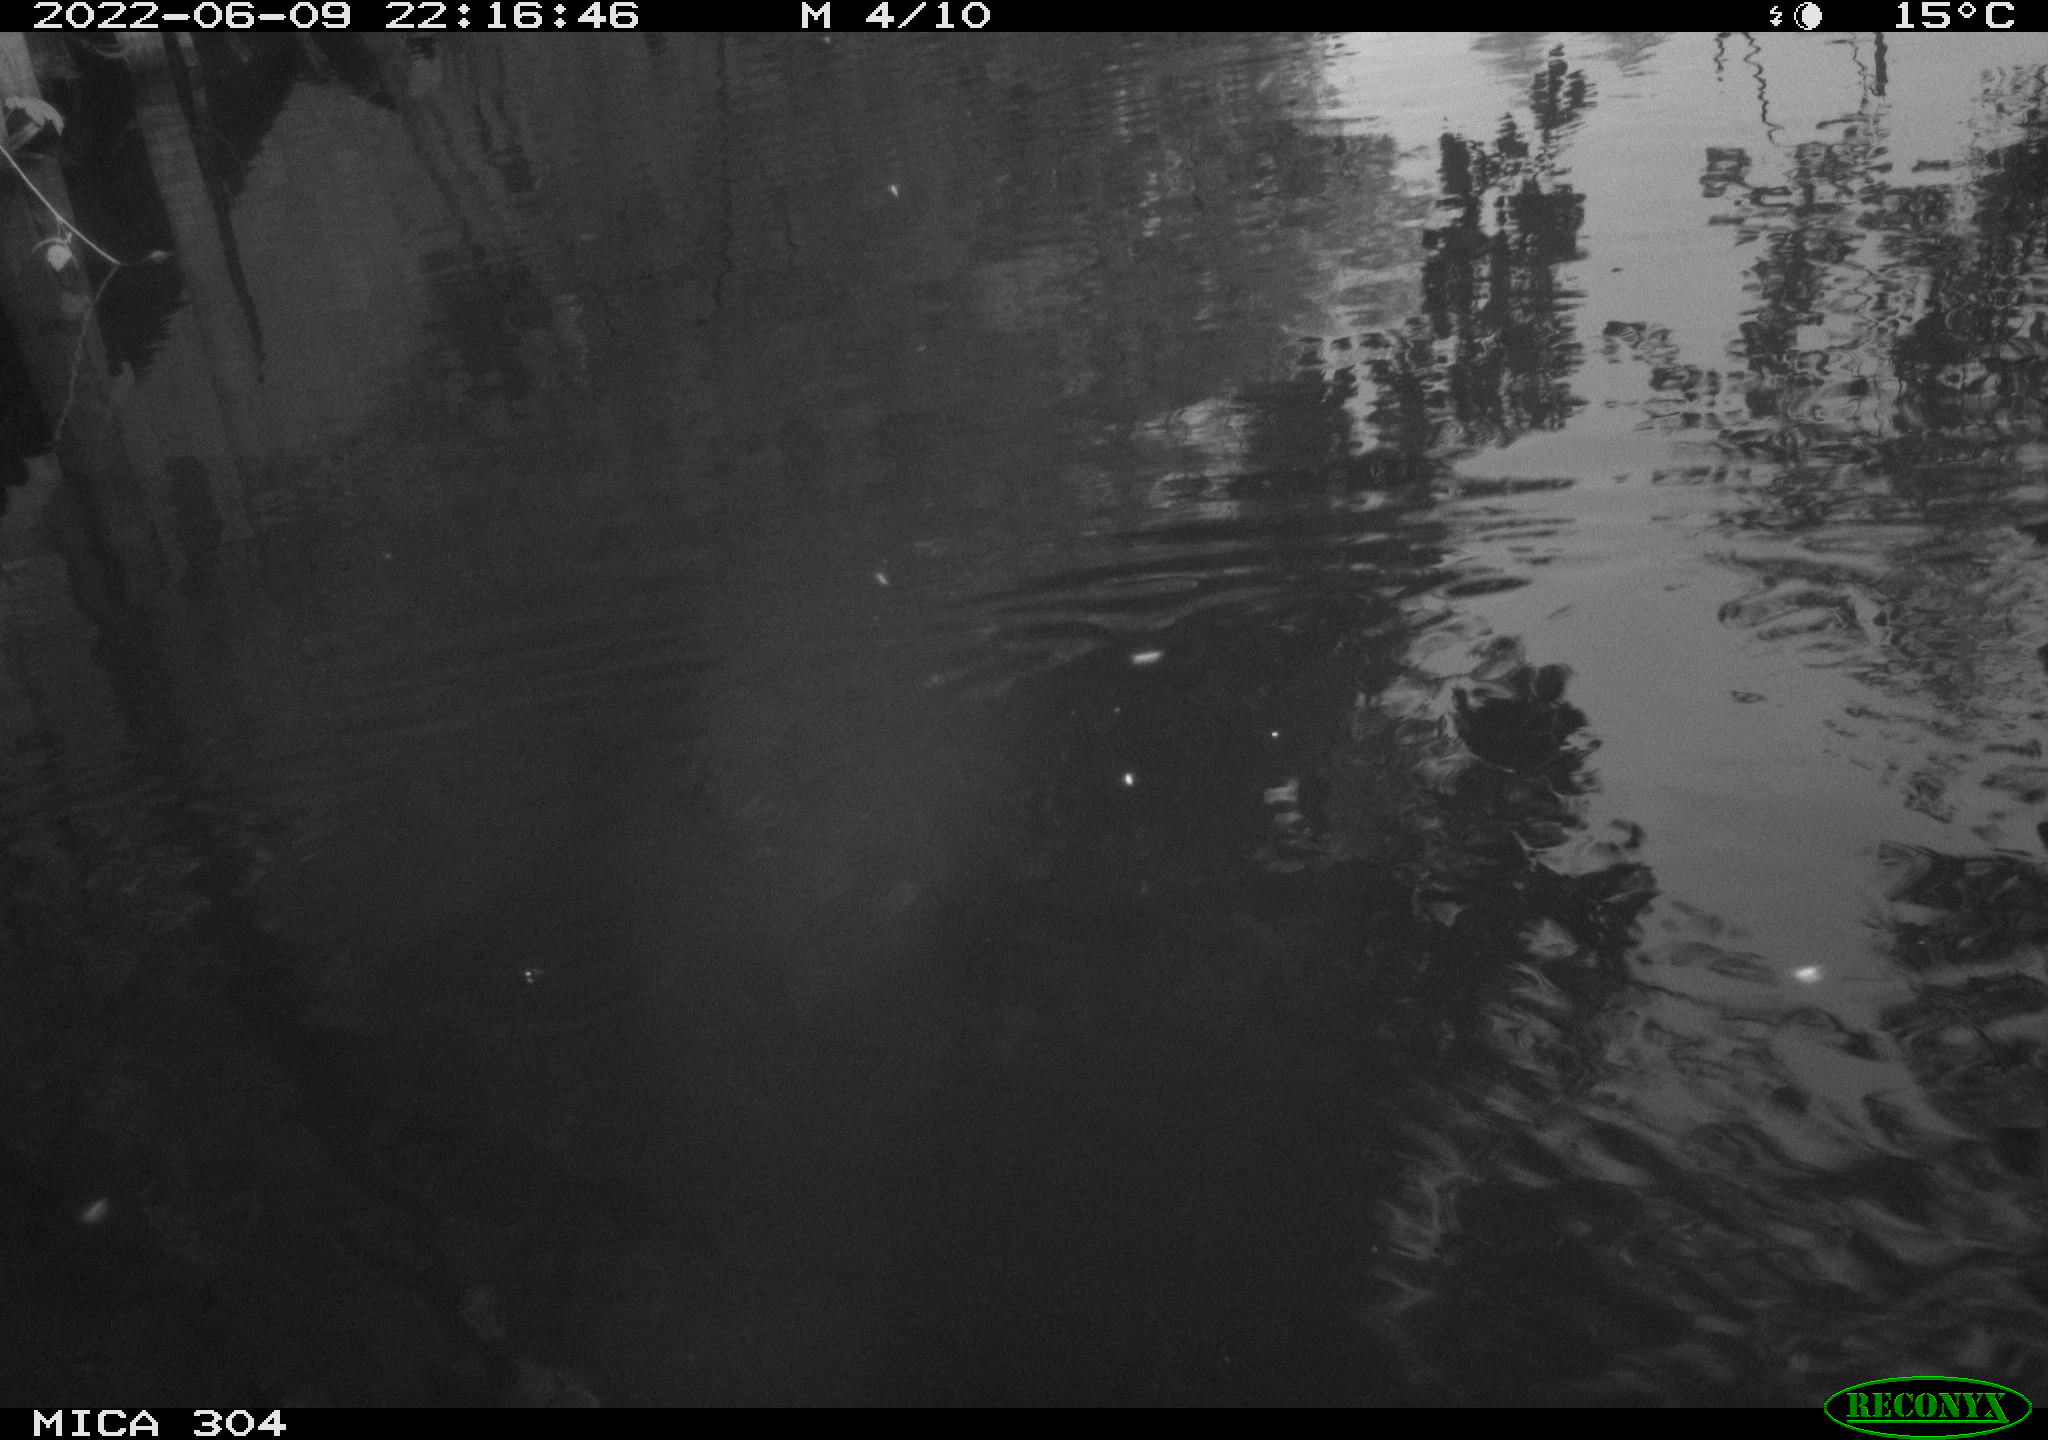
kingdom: Animalia
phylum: Chordata
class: Aves
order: Gruiformes
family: Rallidae
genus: Gallinula
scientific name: Gallinula chloropus
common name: Common moorhen
